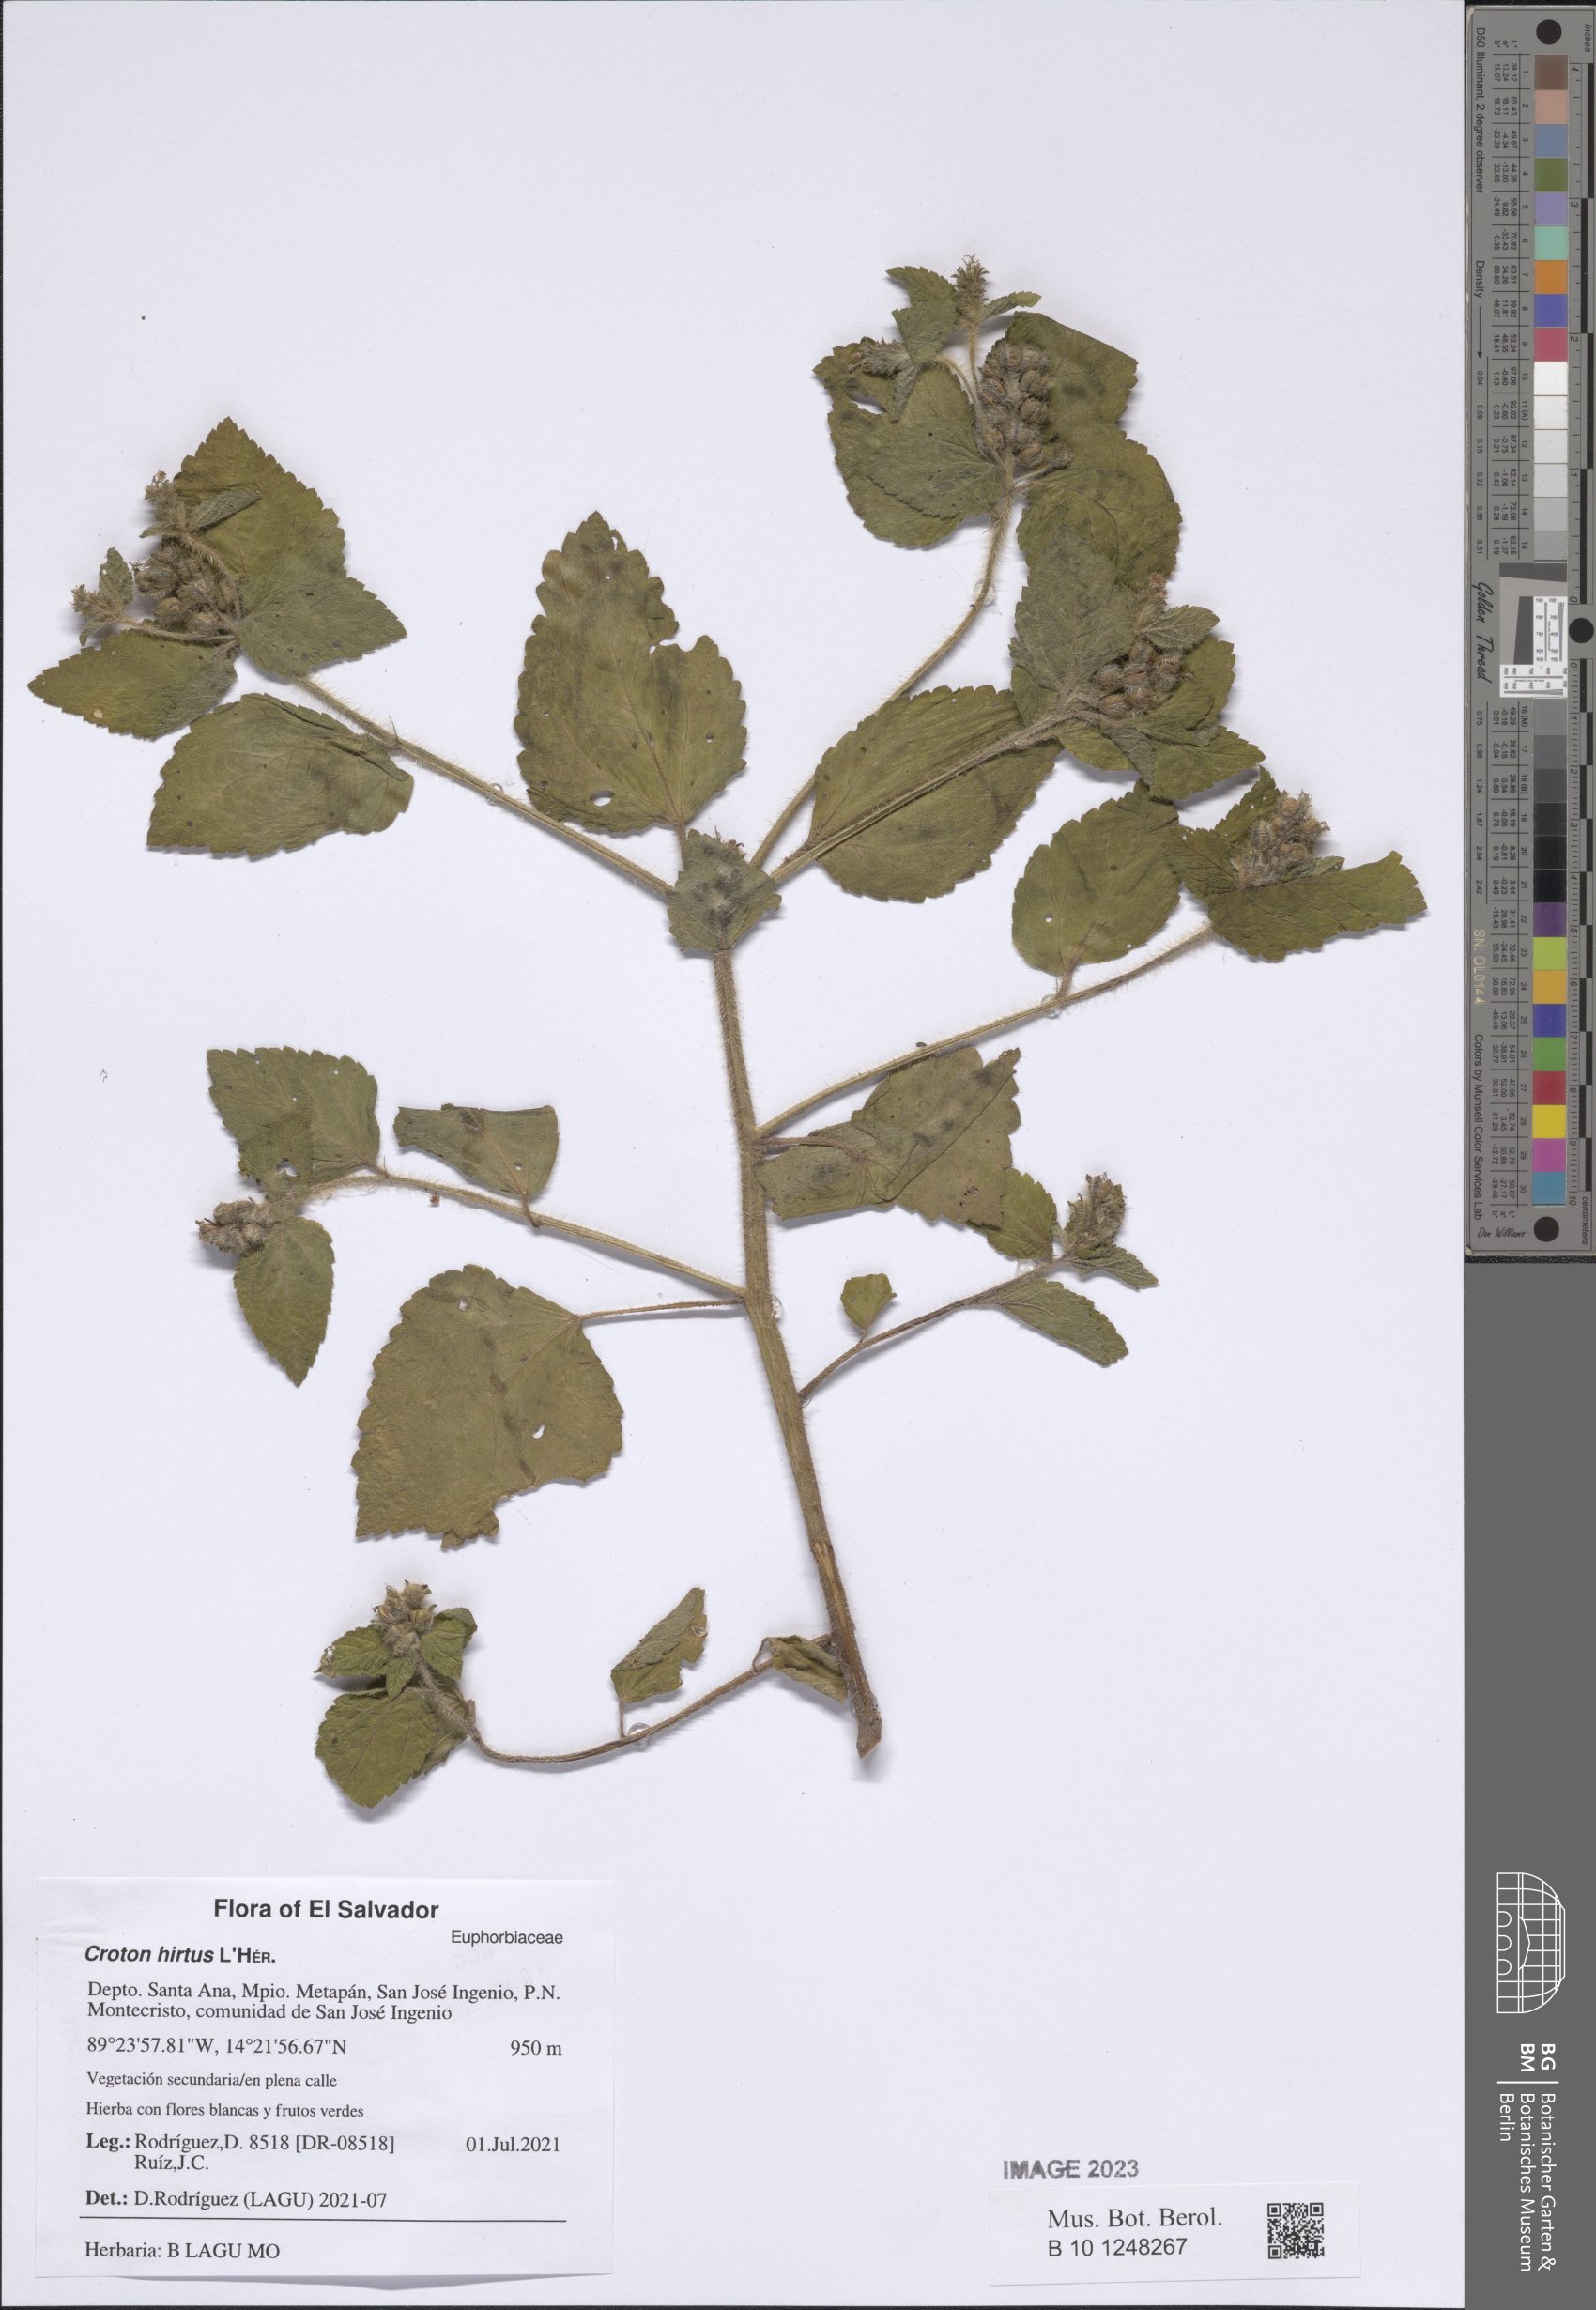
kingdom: Plantae
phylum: Tracheophyta
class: Magnoliopsida
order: Malpighiales
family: Euphorbiaceae
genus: Croton
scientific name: Croton hirtus
